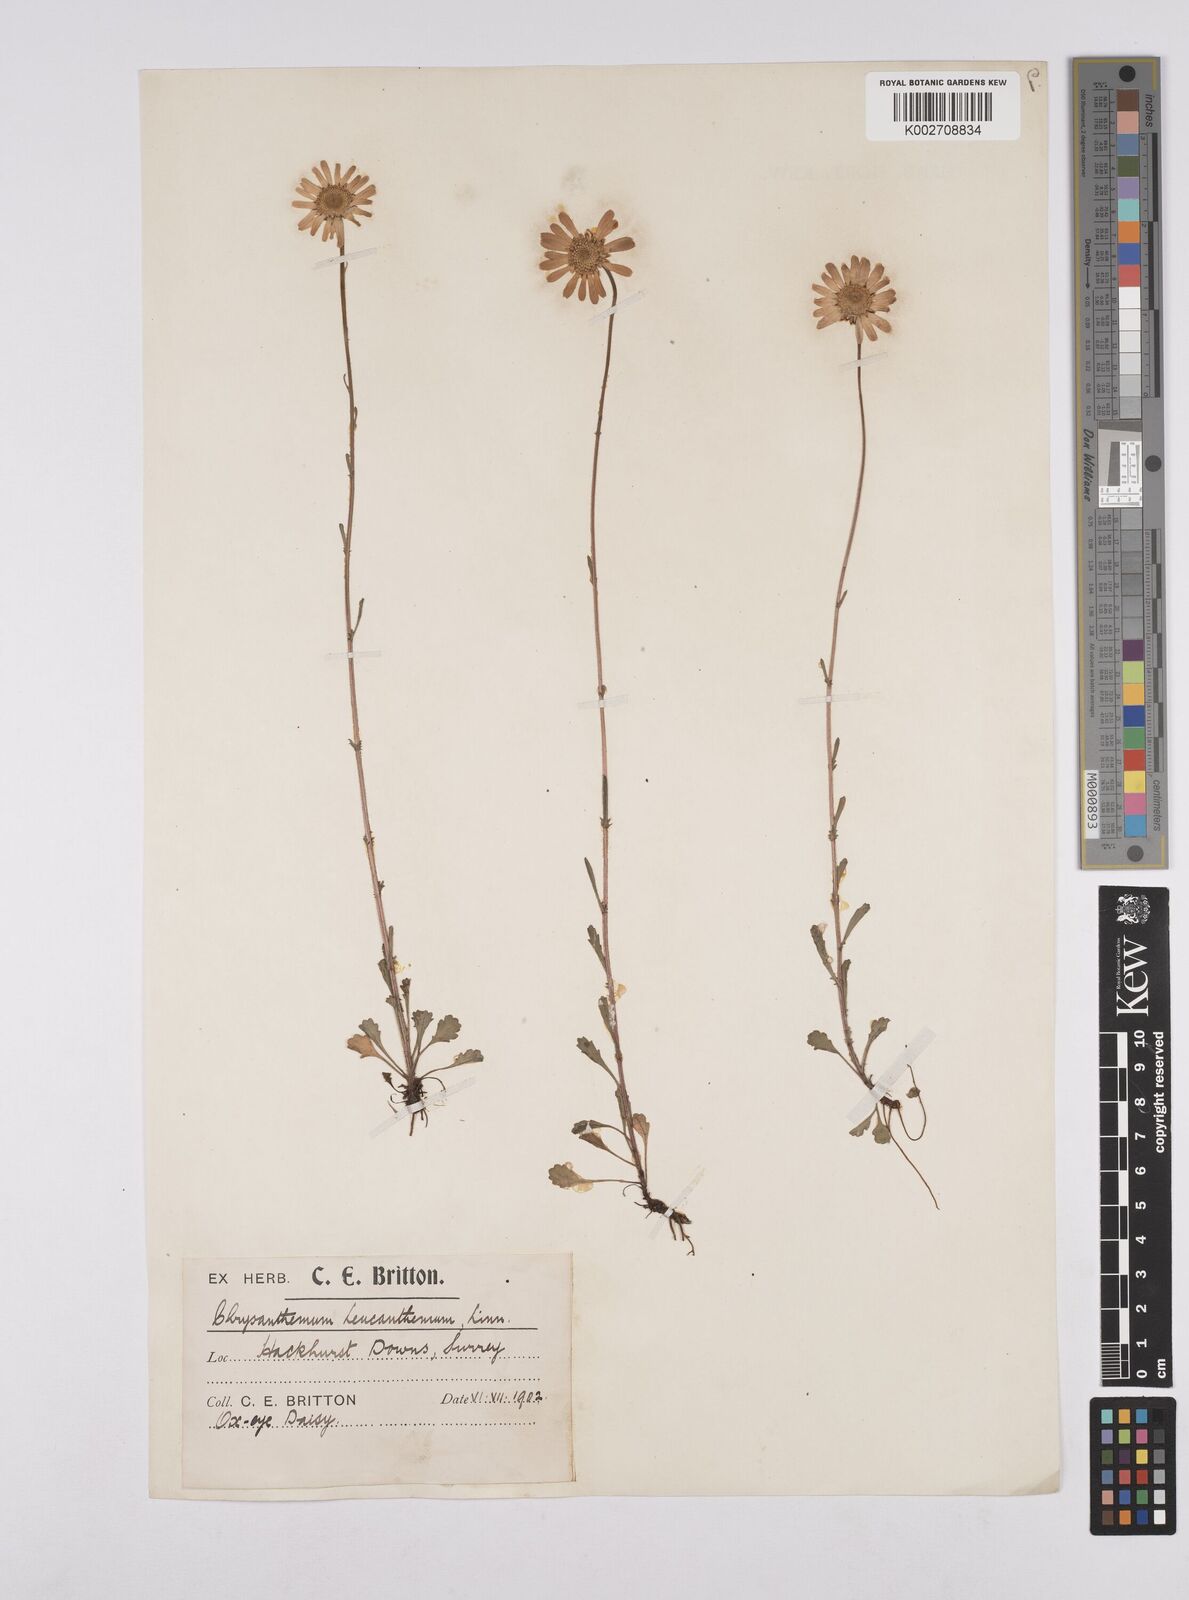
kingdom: Plantae
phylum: Tracheophyta
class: Magnoliopsida
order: Asterales
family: Asteraceae
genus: Leucanthemum
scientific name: Leucanthemum
